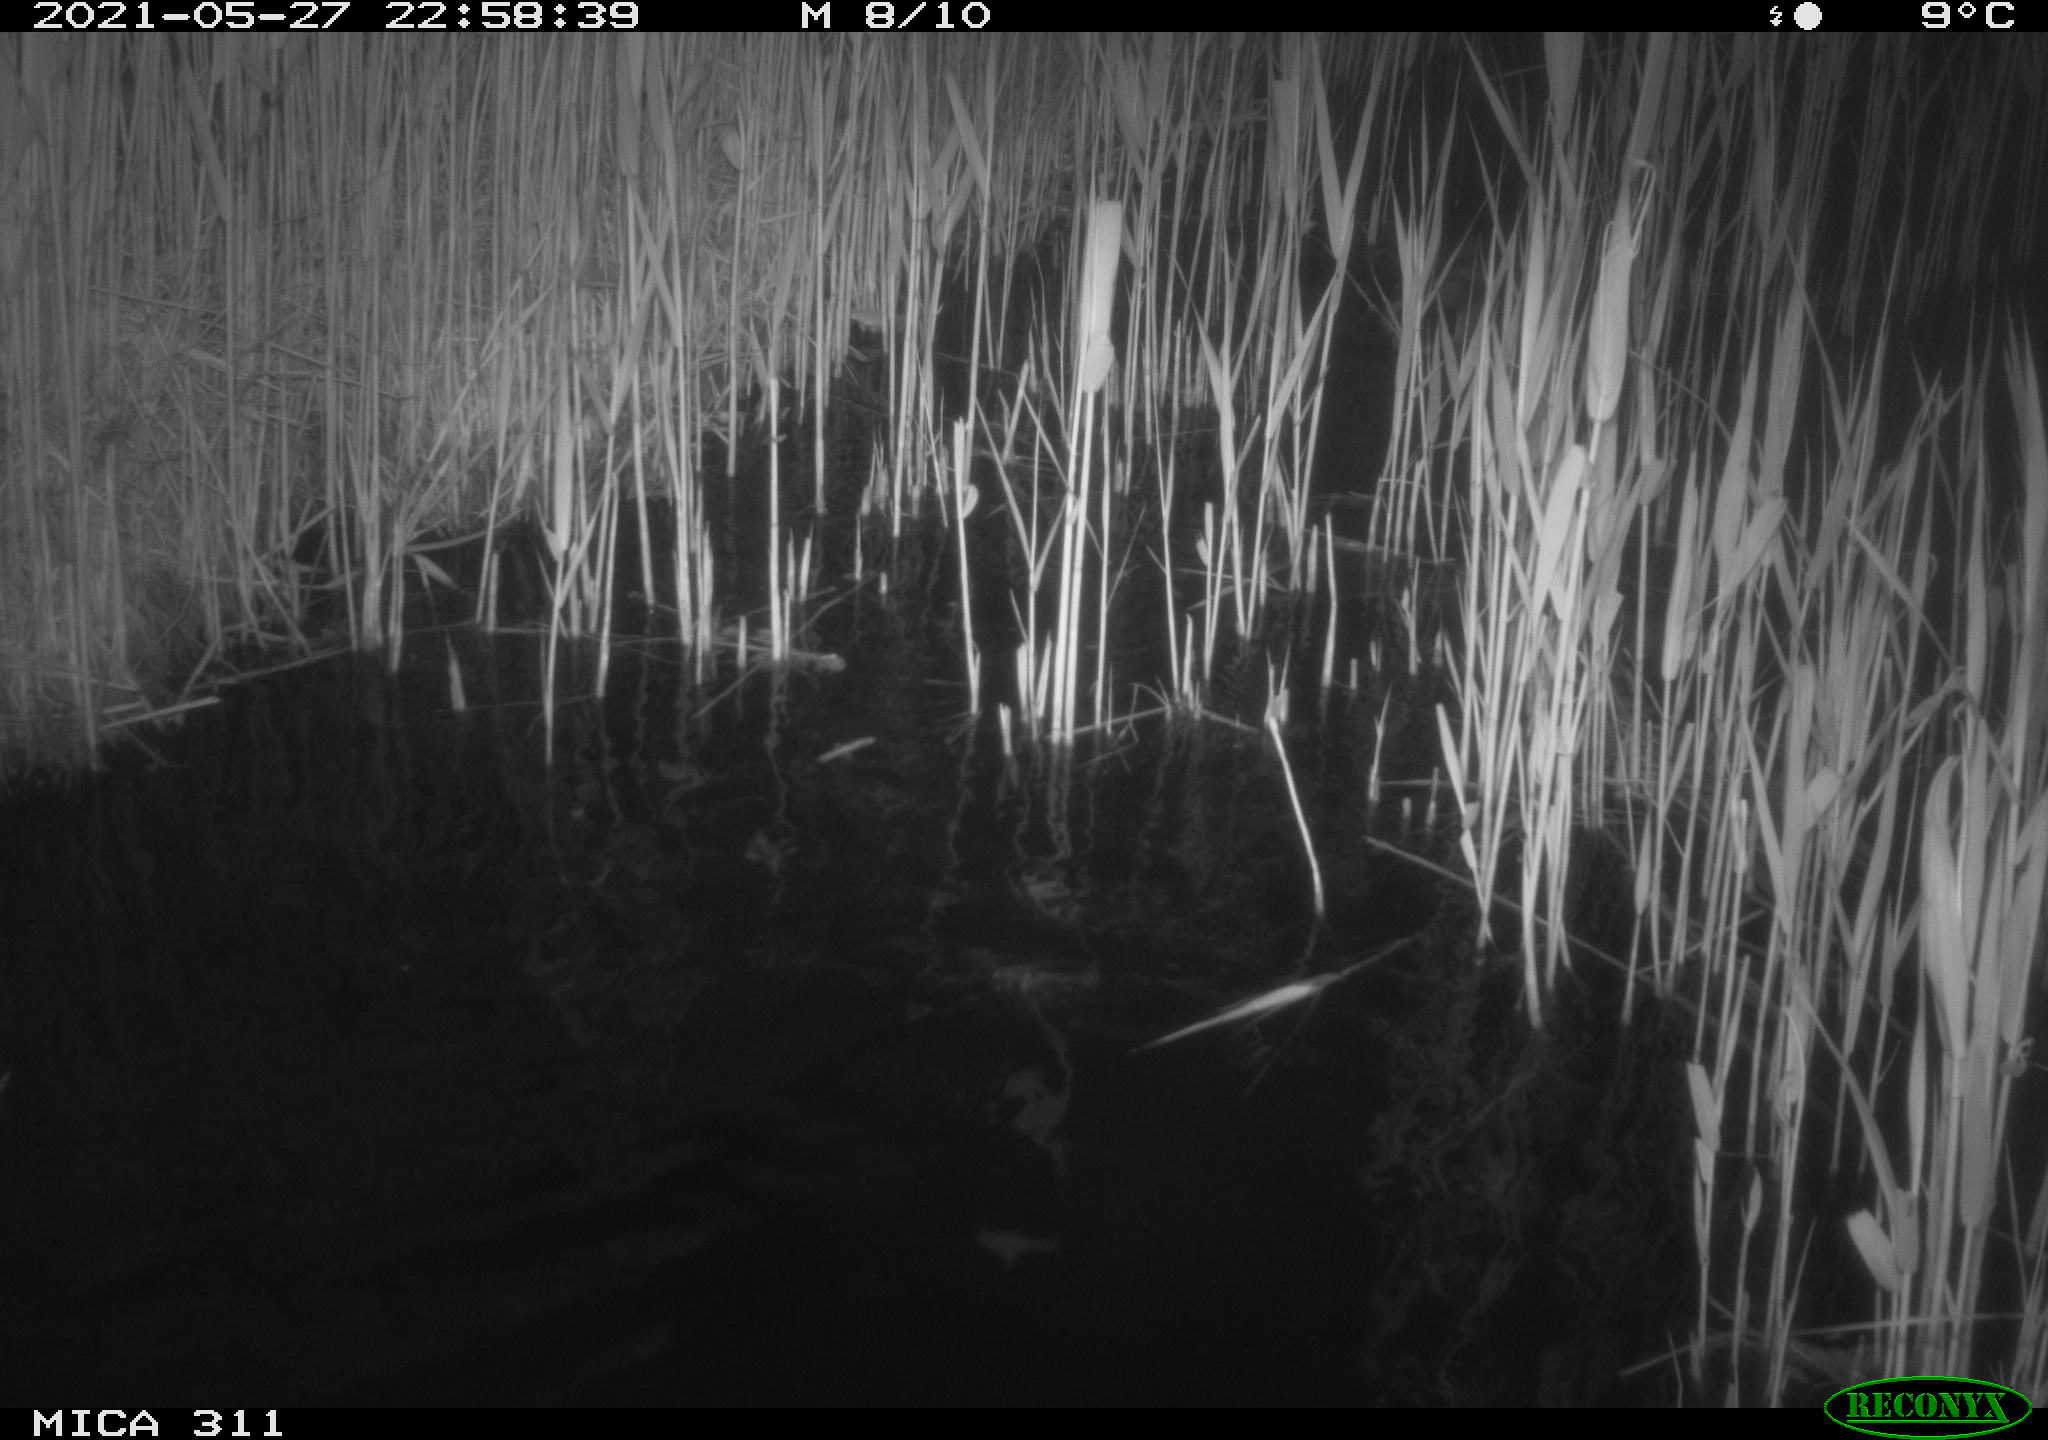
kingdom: Animalia
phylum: Chordata
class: Aves
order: Anseriformes
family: Anatidae
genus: Anas
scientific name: Anas
